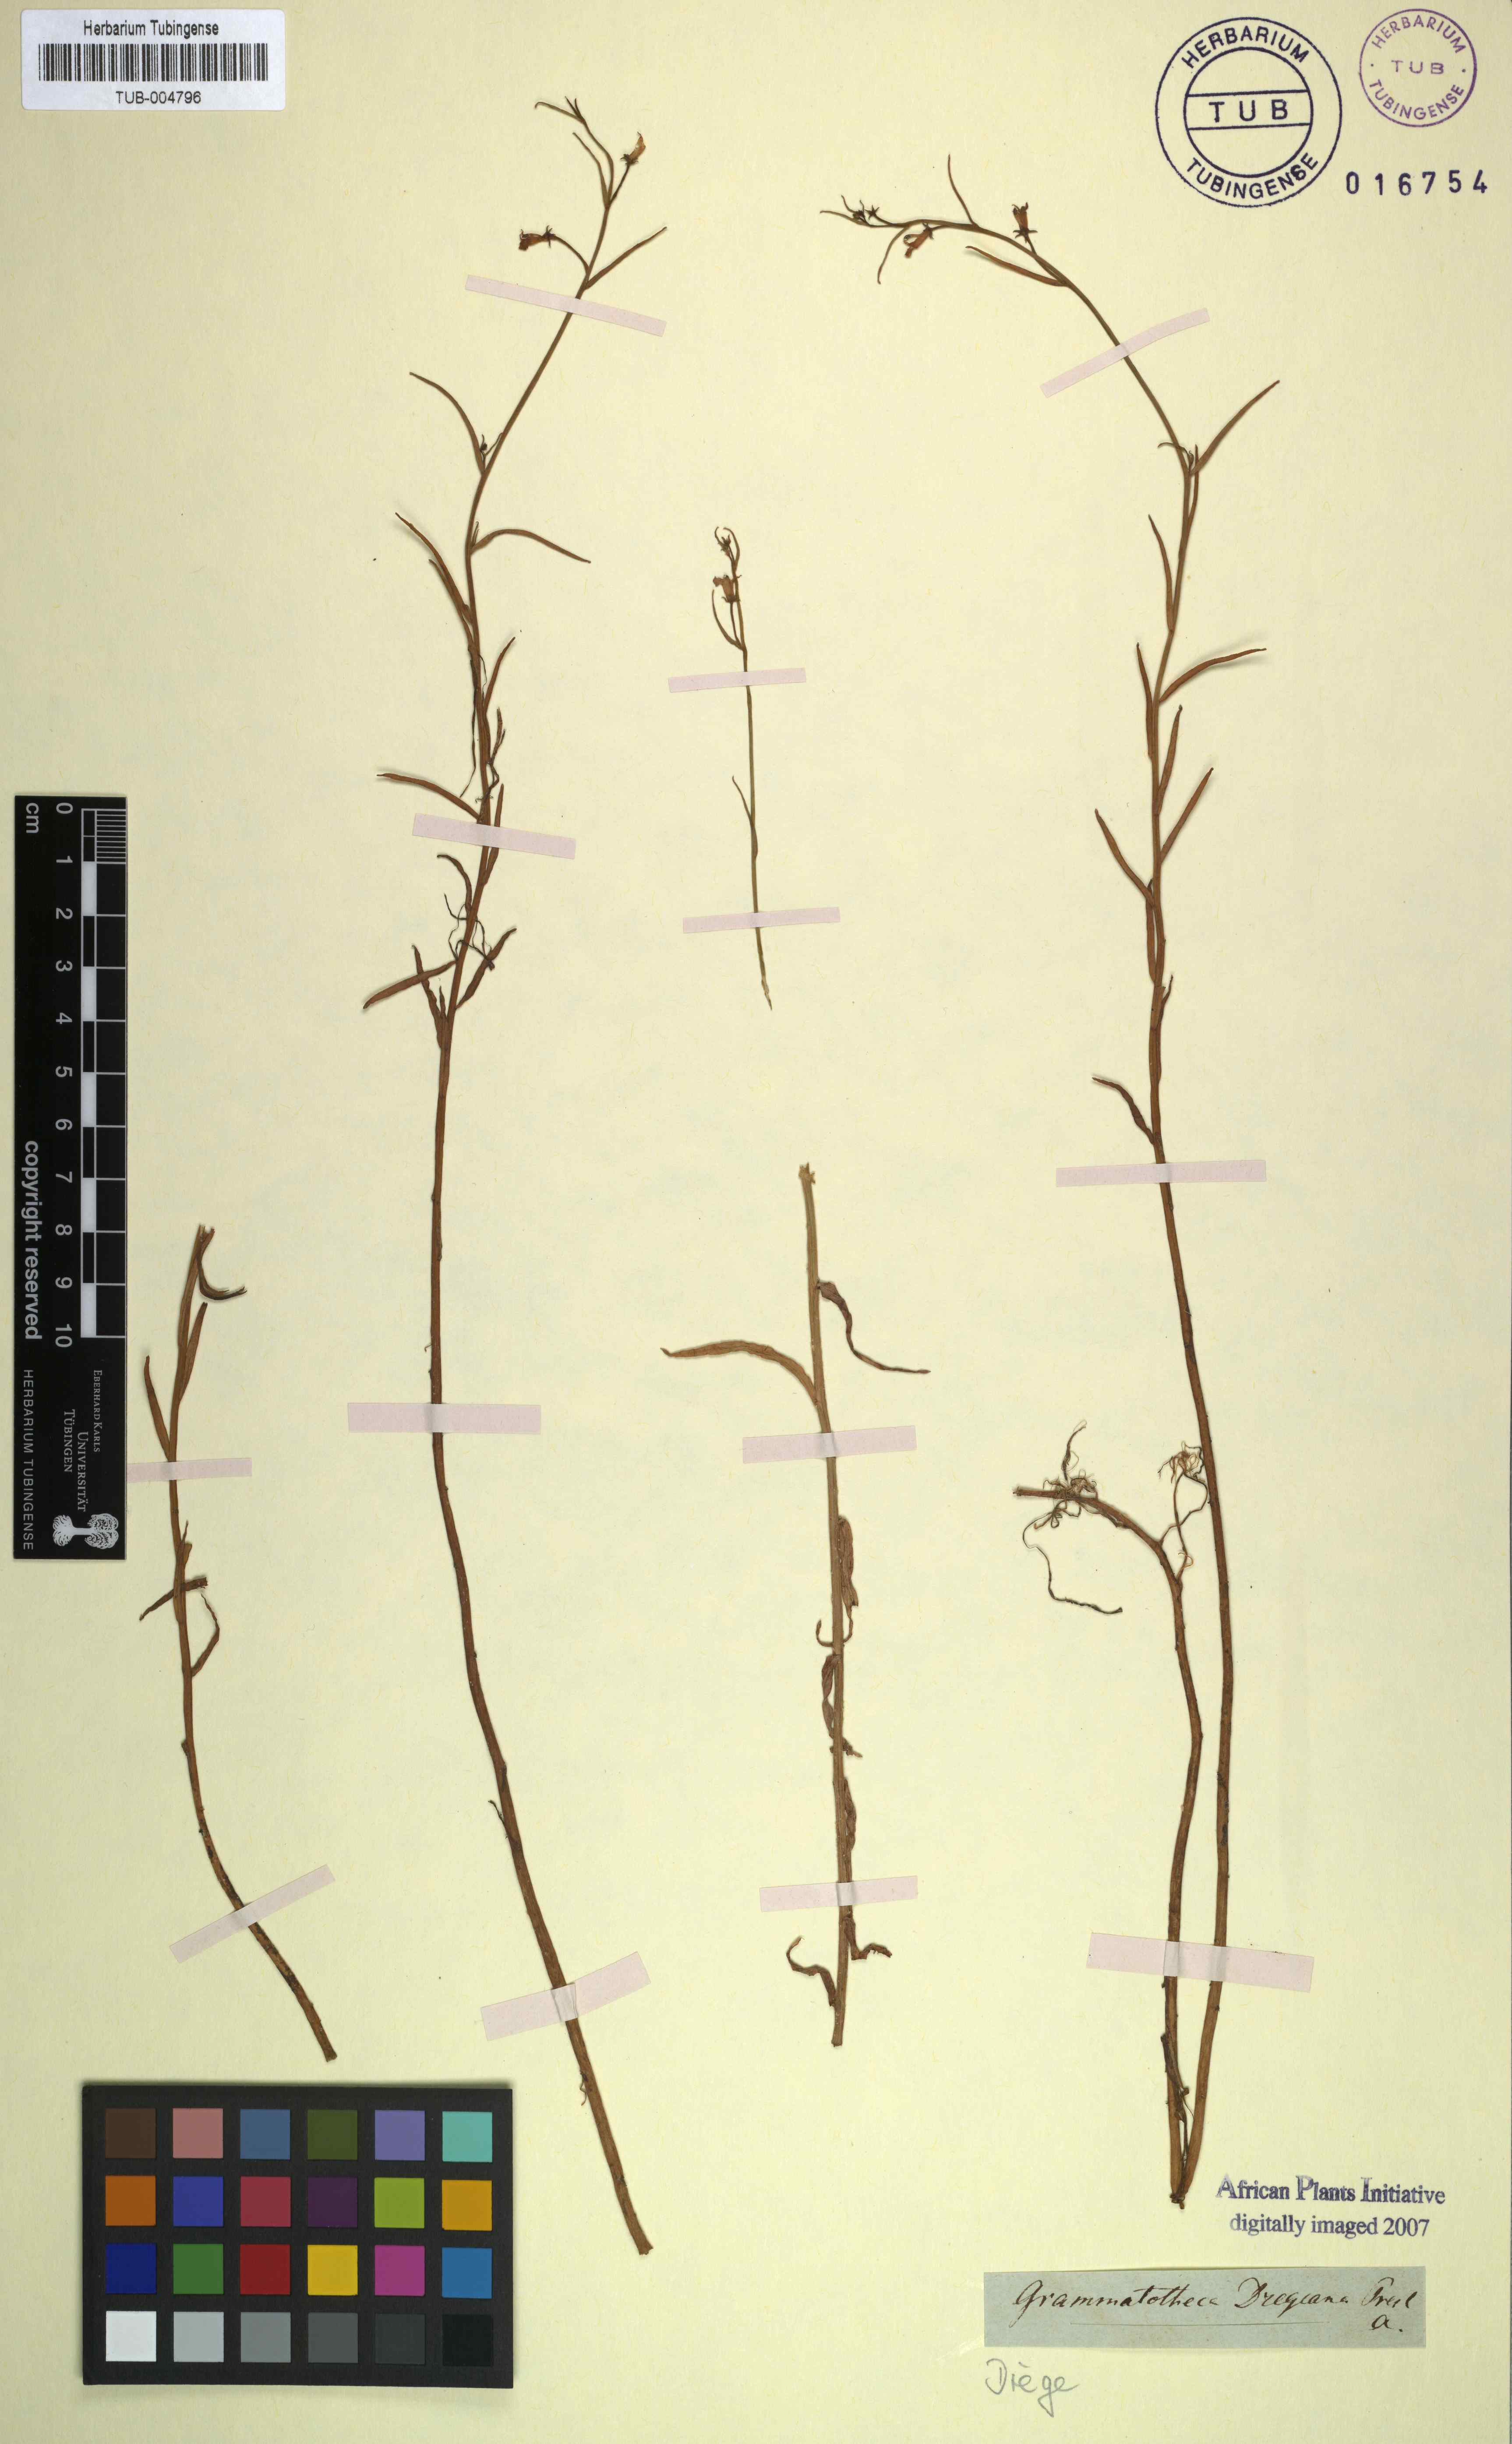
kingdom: Plantae
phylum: Tracheophyta
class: Magnoliopsida
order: Asterales
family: Campanulaceae
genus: Grammatotheca
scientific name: Grammatotheca bergiana
